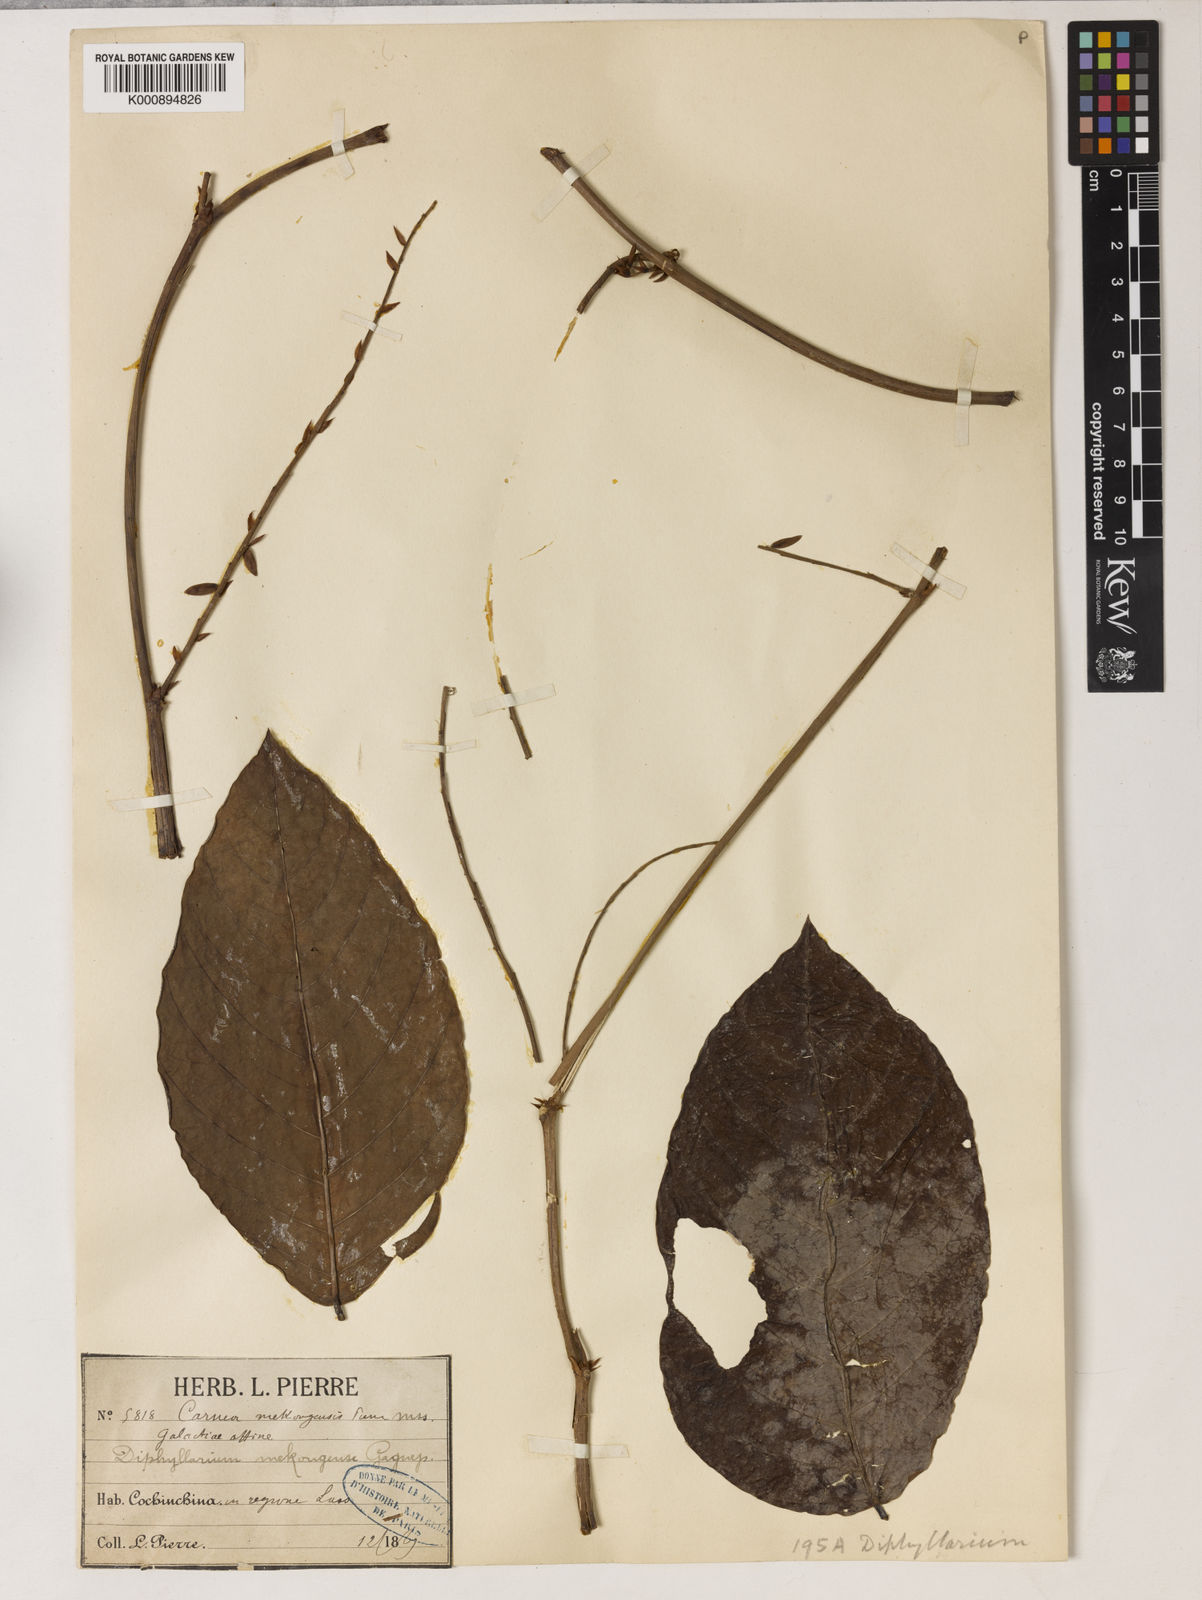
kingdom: Plantae
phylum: Tracheophyta
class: Magnoliopsida
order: Fabales
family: Fabaceae
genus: Diphyllarium
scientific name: Diphyllarium
